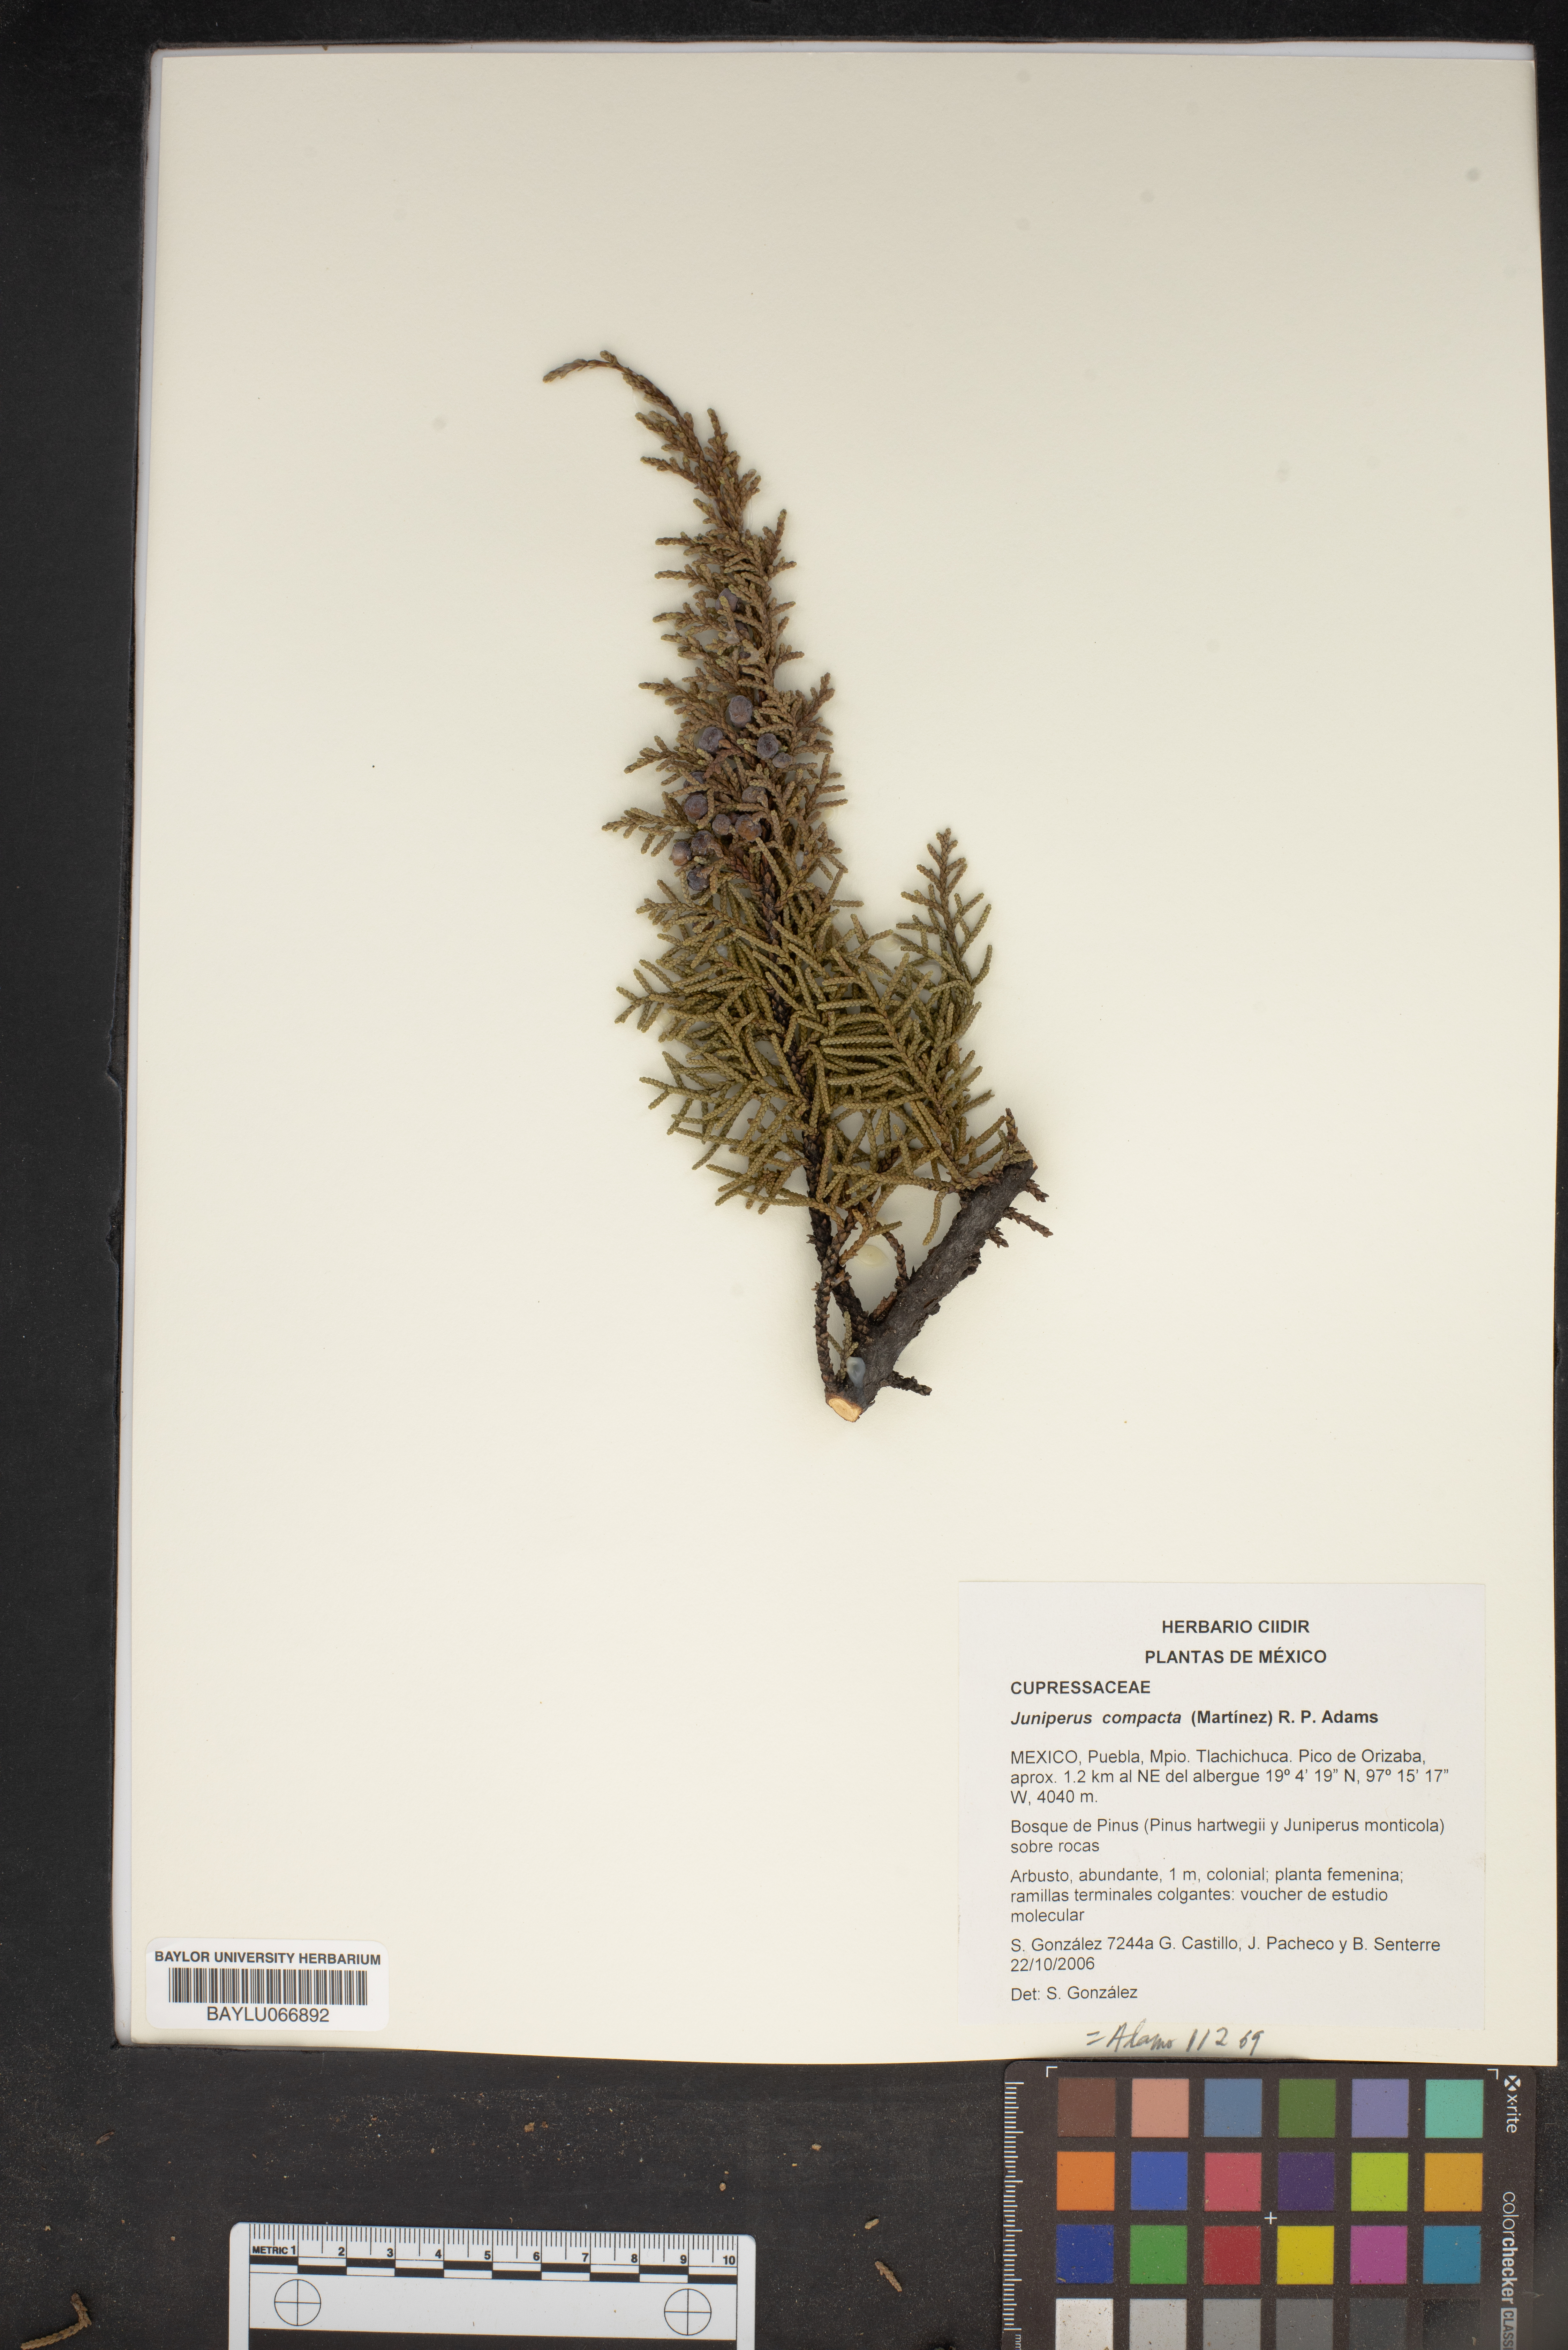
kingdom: Plantae
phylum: Tracheophyta
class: Pinopsida
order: Pinales
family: Cupressaceae
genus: Juniperus
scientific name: Juniperus monticola
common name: Mexican juniper
